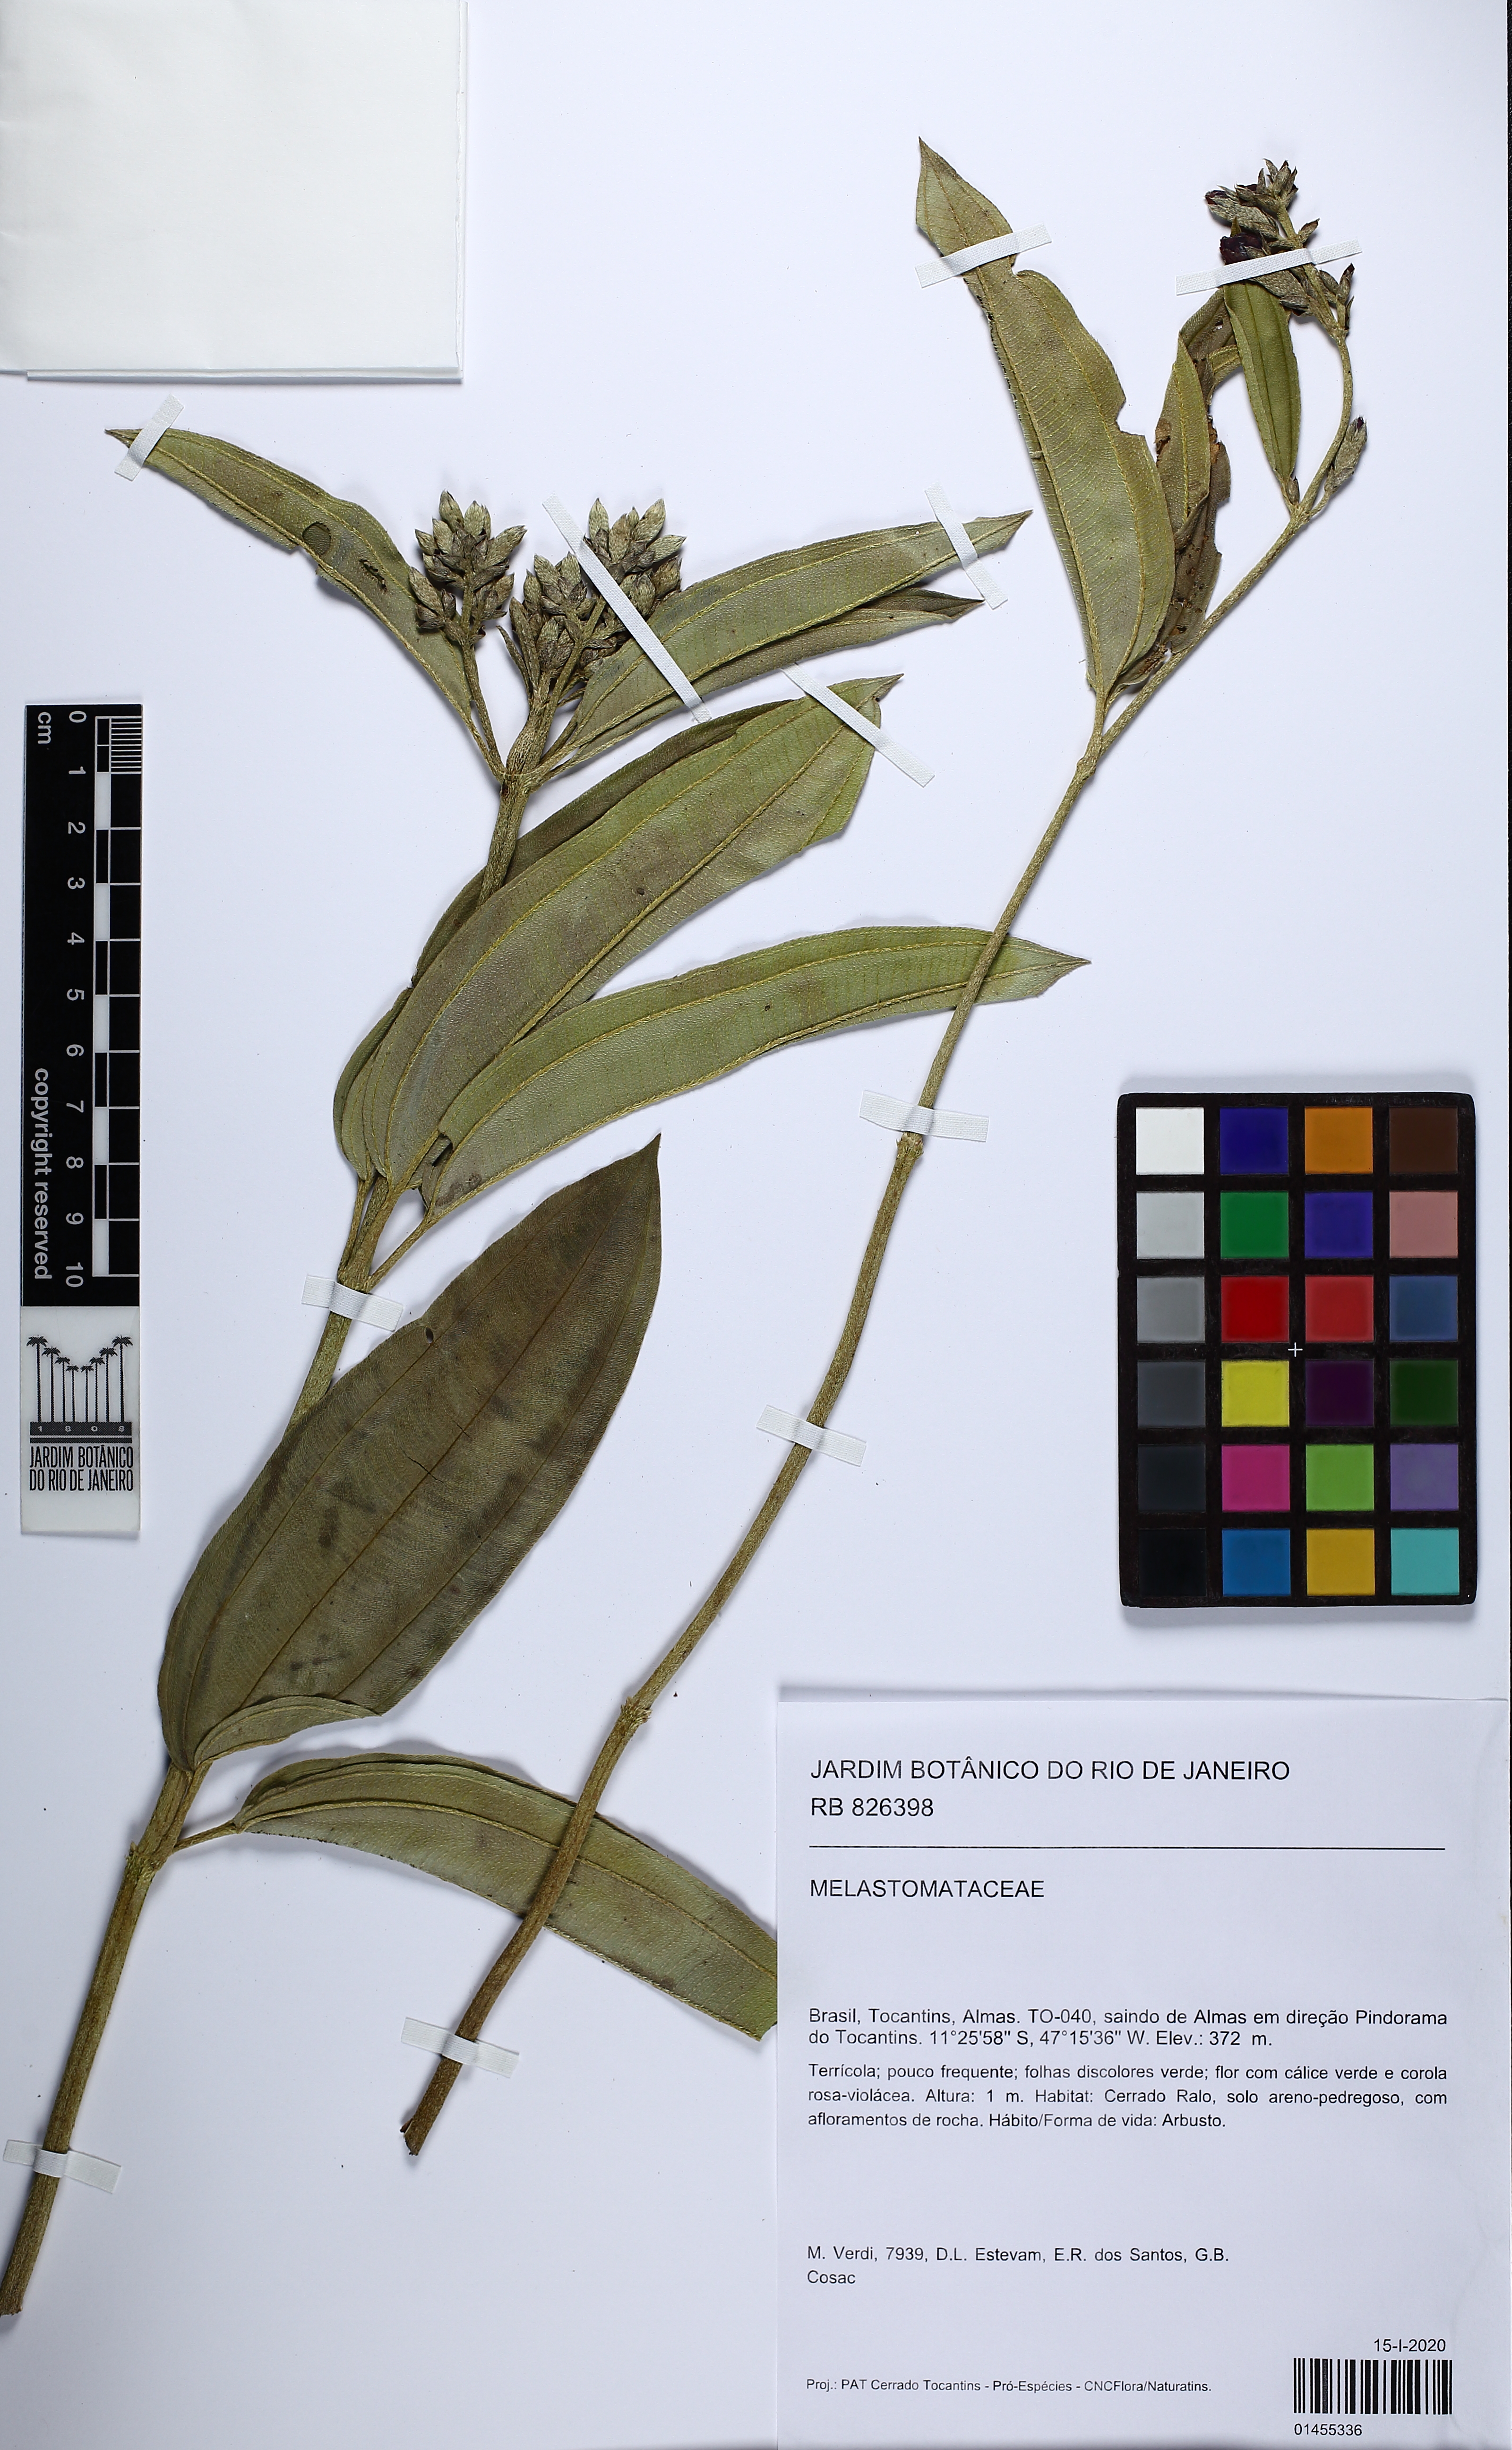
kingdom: Plantae
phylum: Tracheophyta
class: Magnoliopsida
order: Myrtales
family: Melastomataceae
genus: Pleroma
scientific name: Pleroma aegopogon
